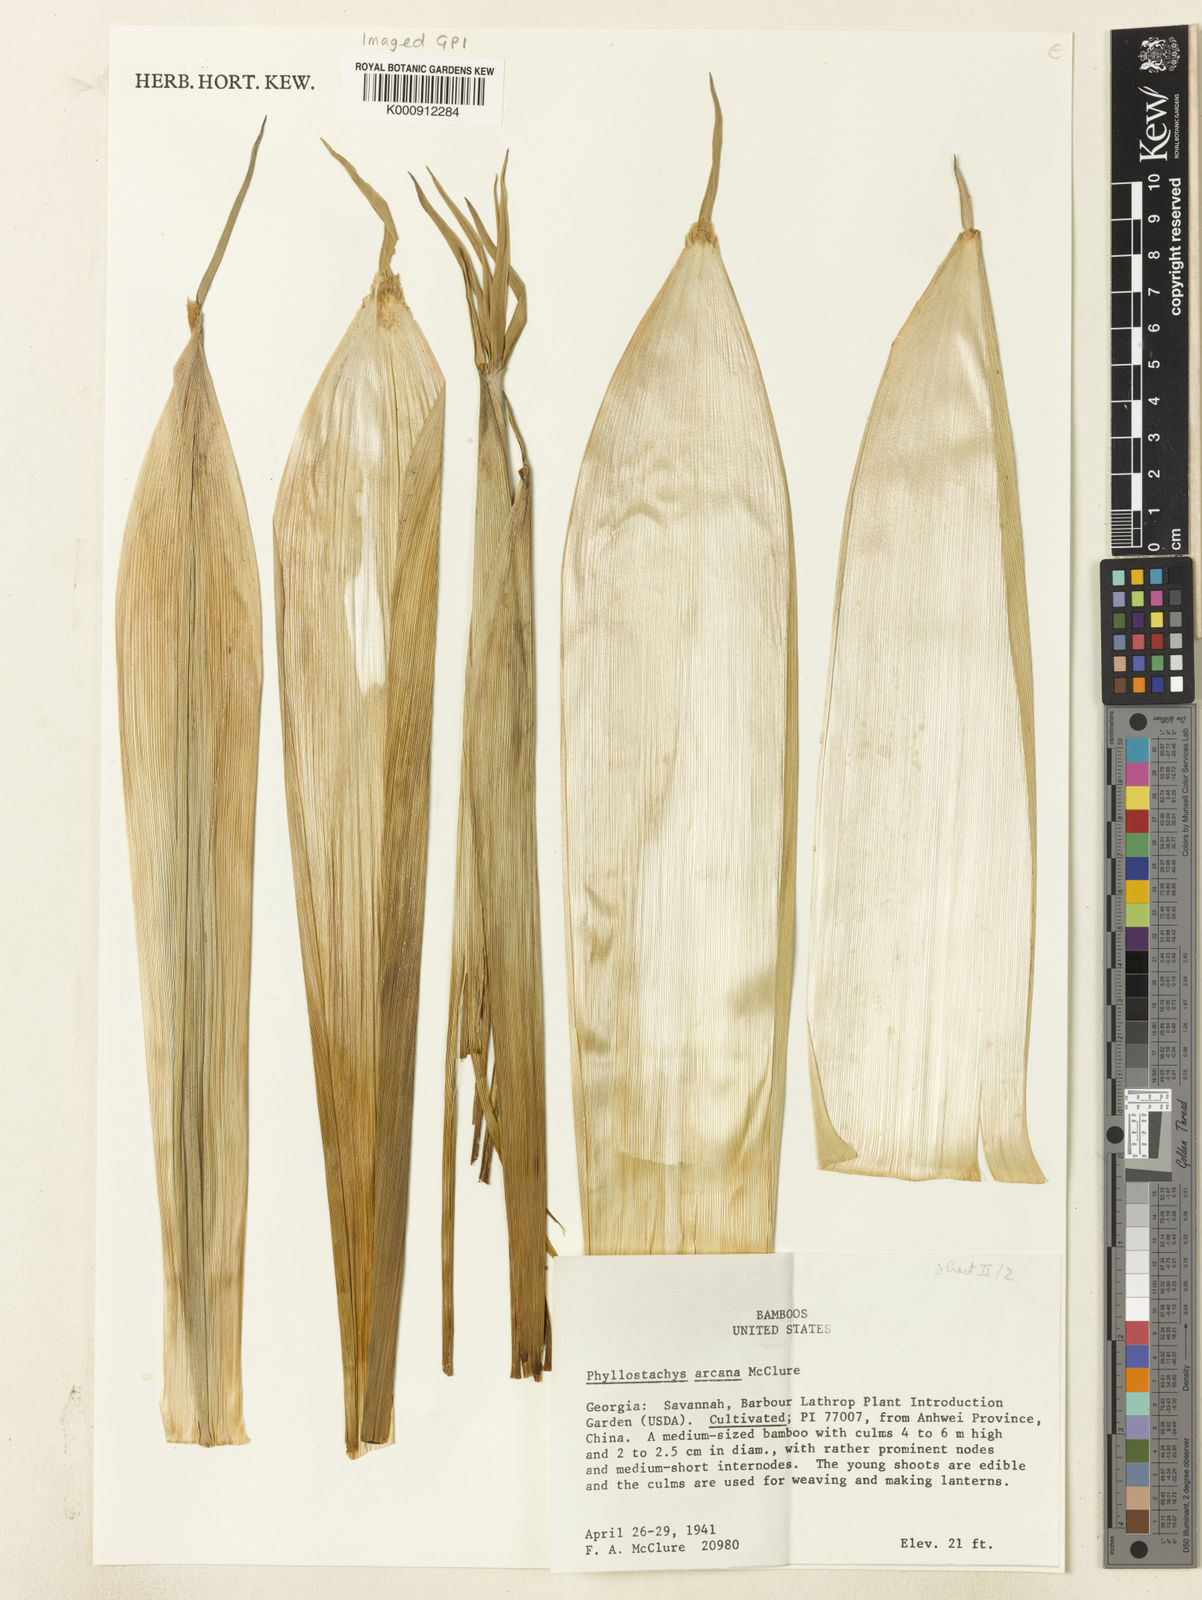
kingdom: Plantae
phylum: Tracheophyta
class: Liliopsida
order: Poales
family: Poaceae
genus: Phyllostachys
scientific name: Phyllostachys arcana
